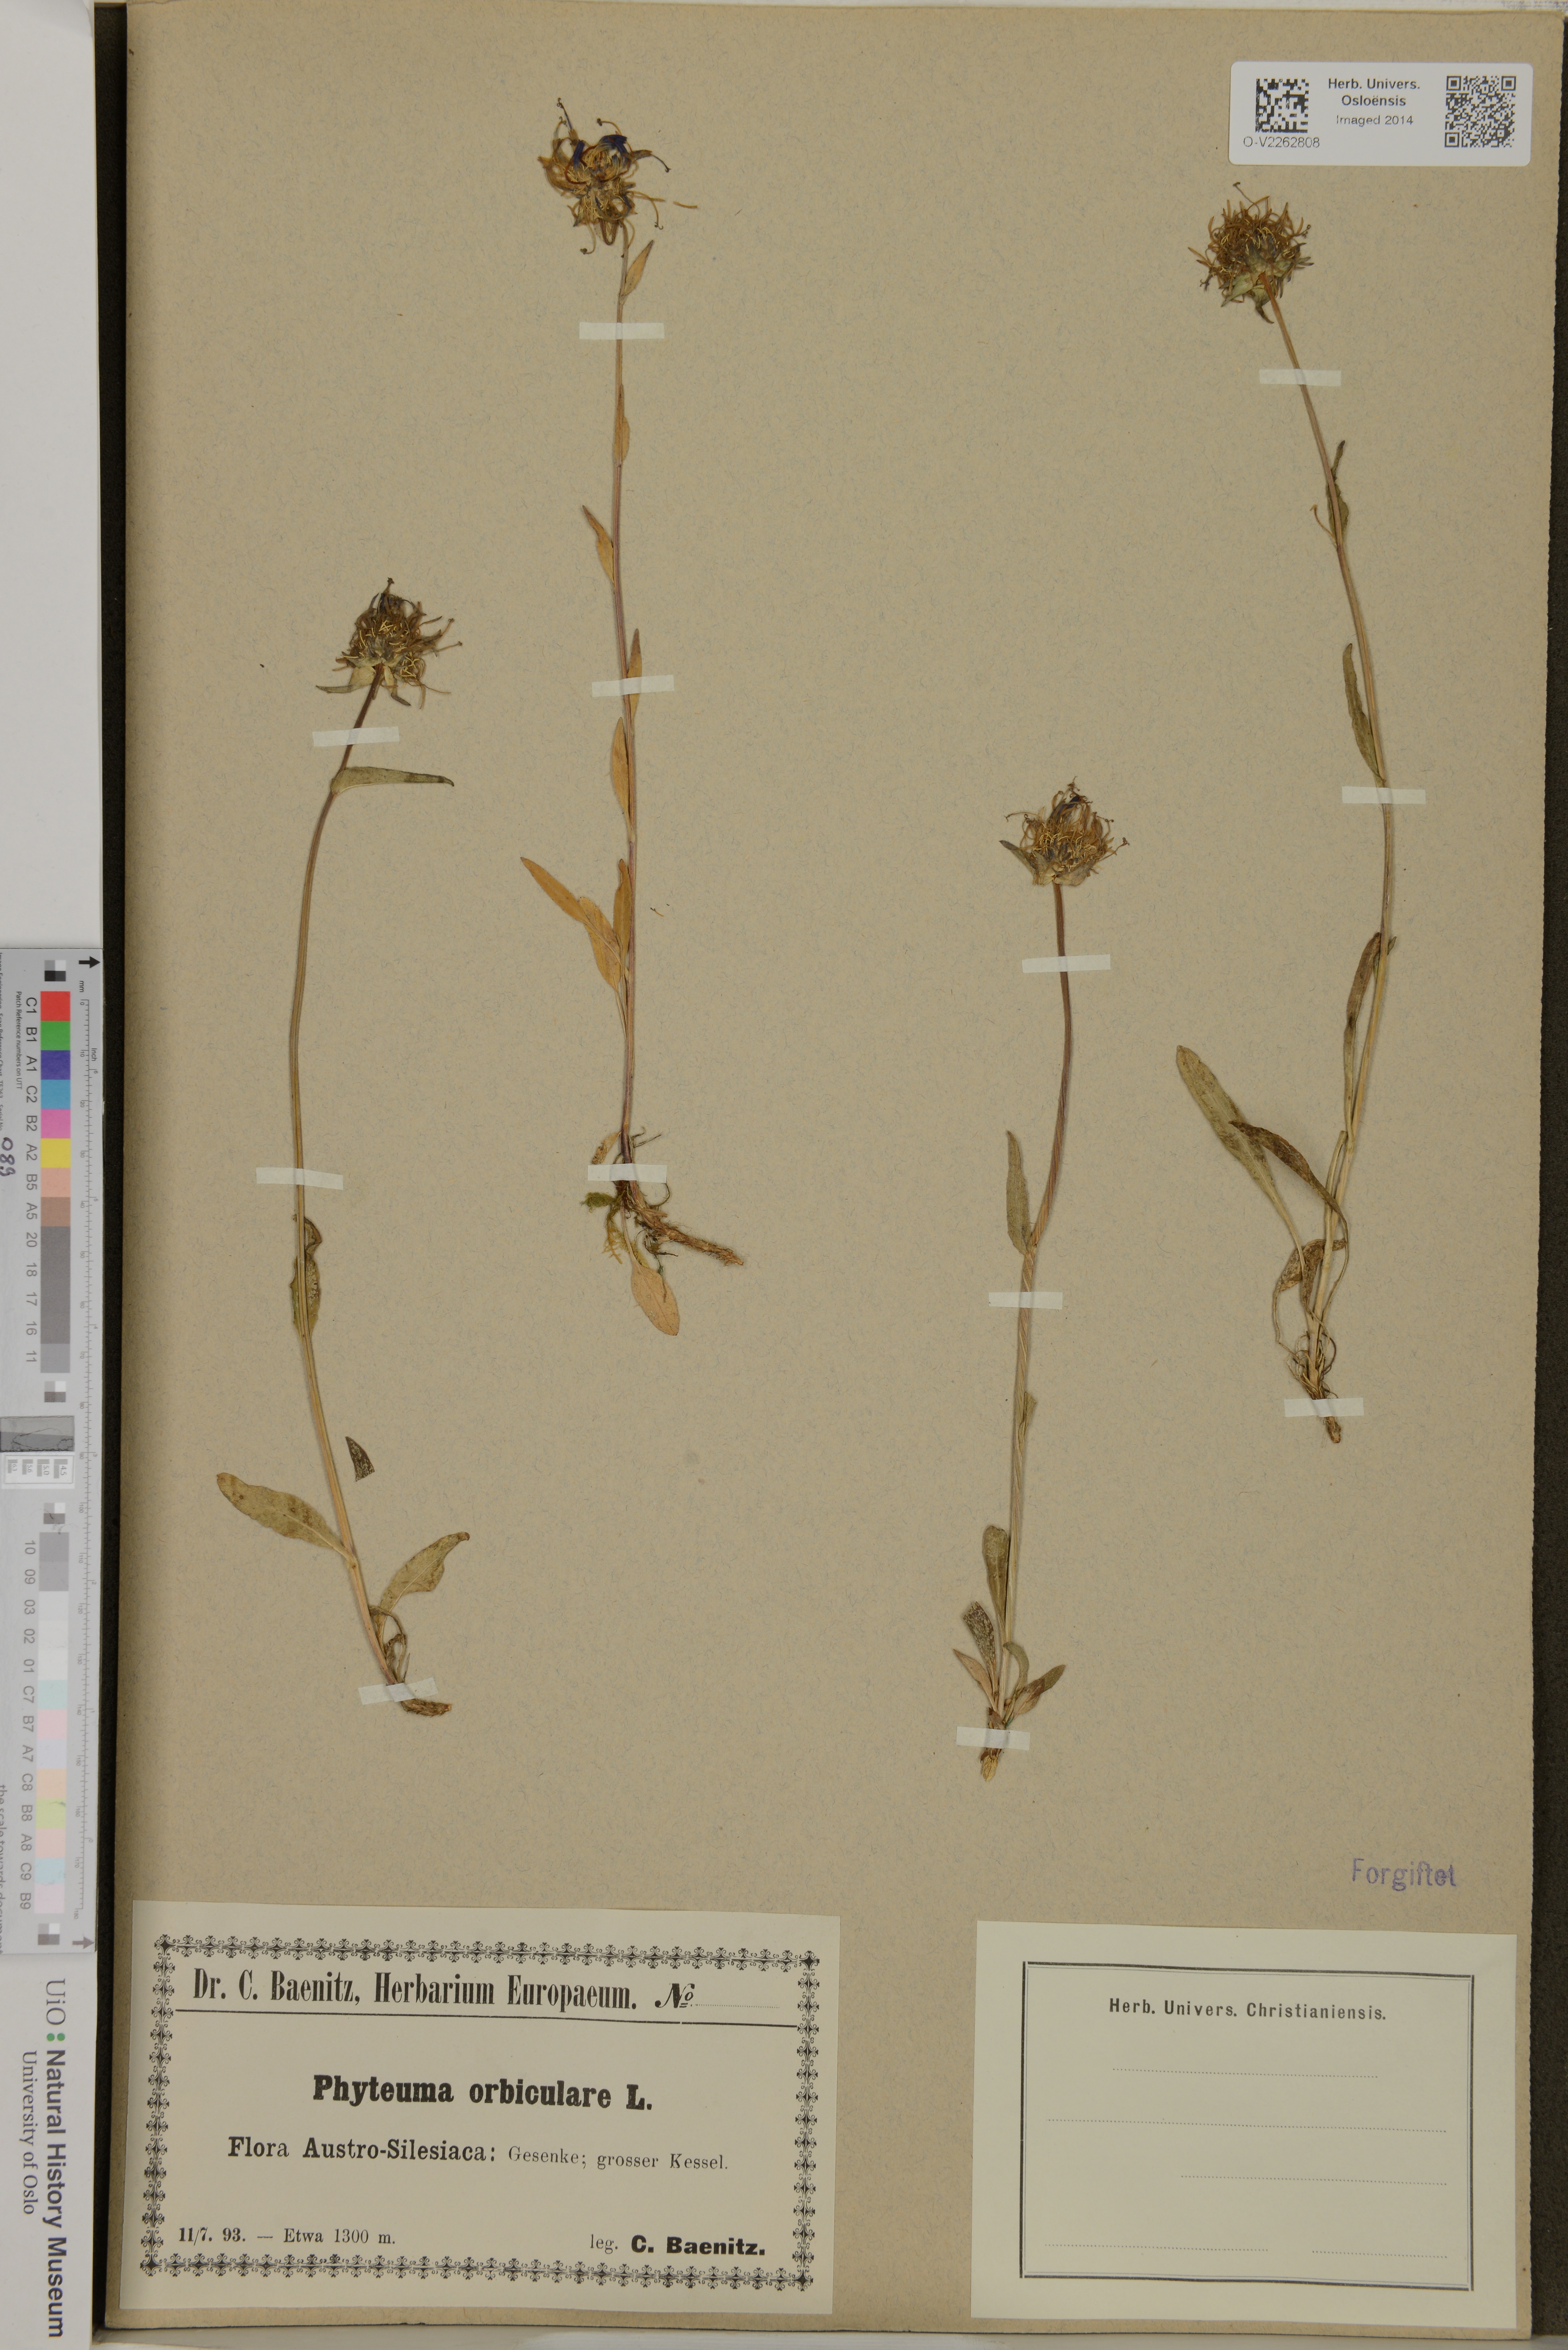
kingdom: Plantae
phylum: Tracheophyta
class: Magnoliopsida
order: Asterales
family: Campanulaceae
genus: Phyteuma
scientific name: Phyteuma orbiculare
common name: Round-headed rampion
